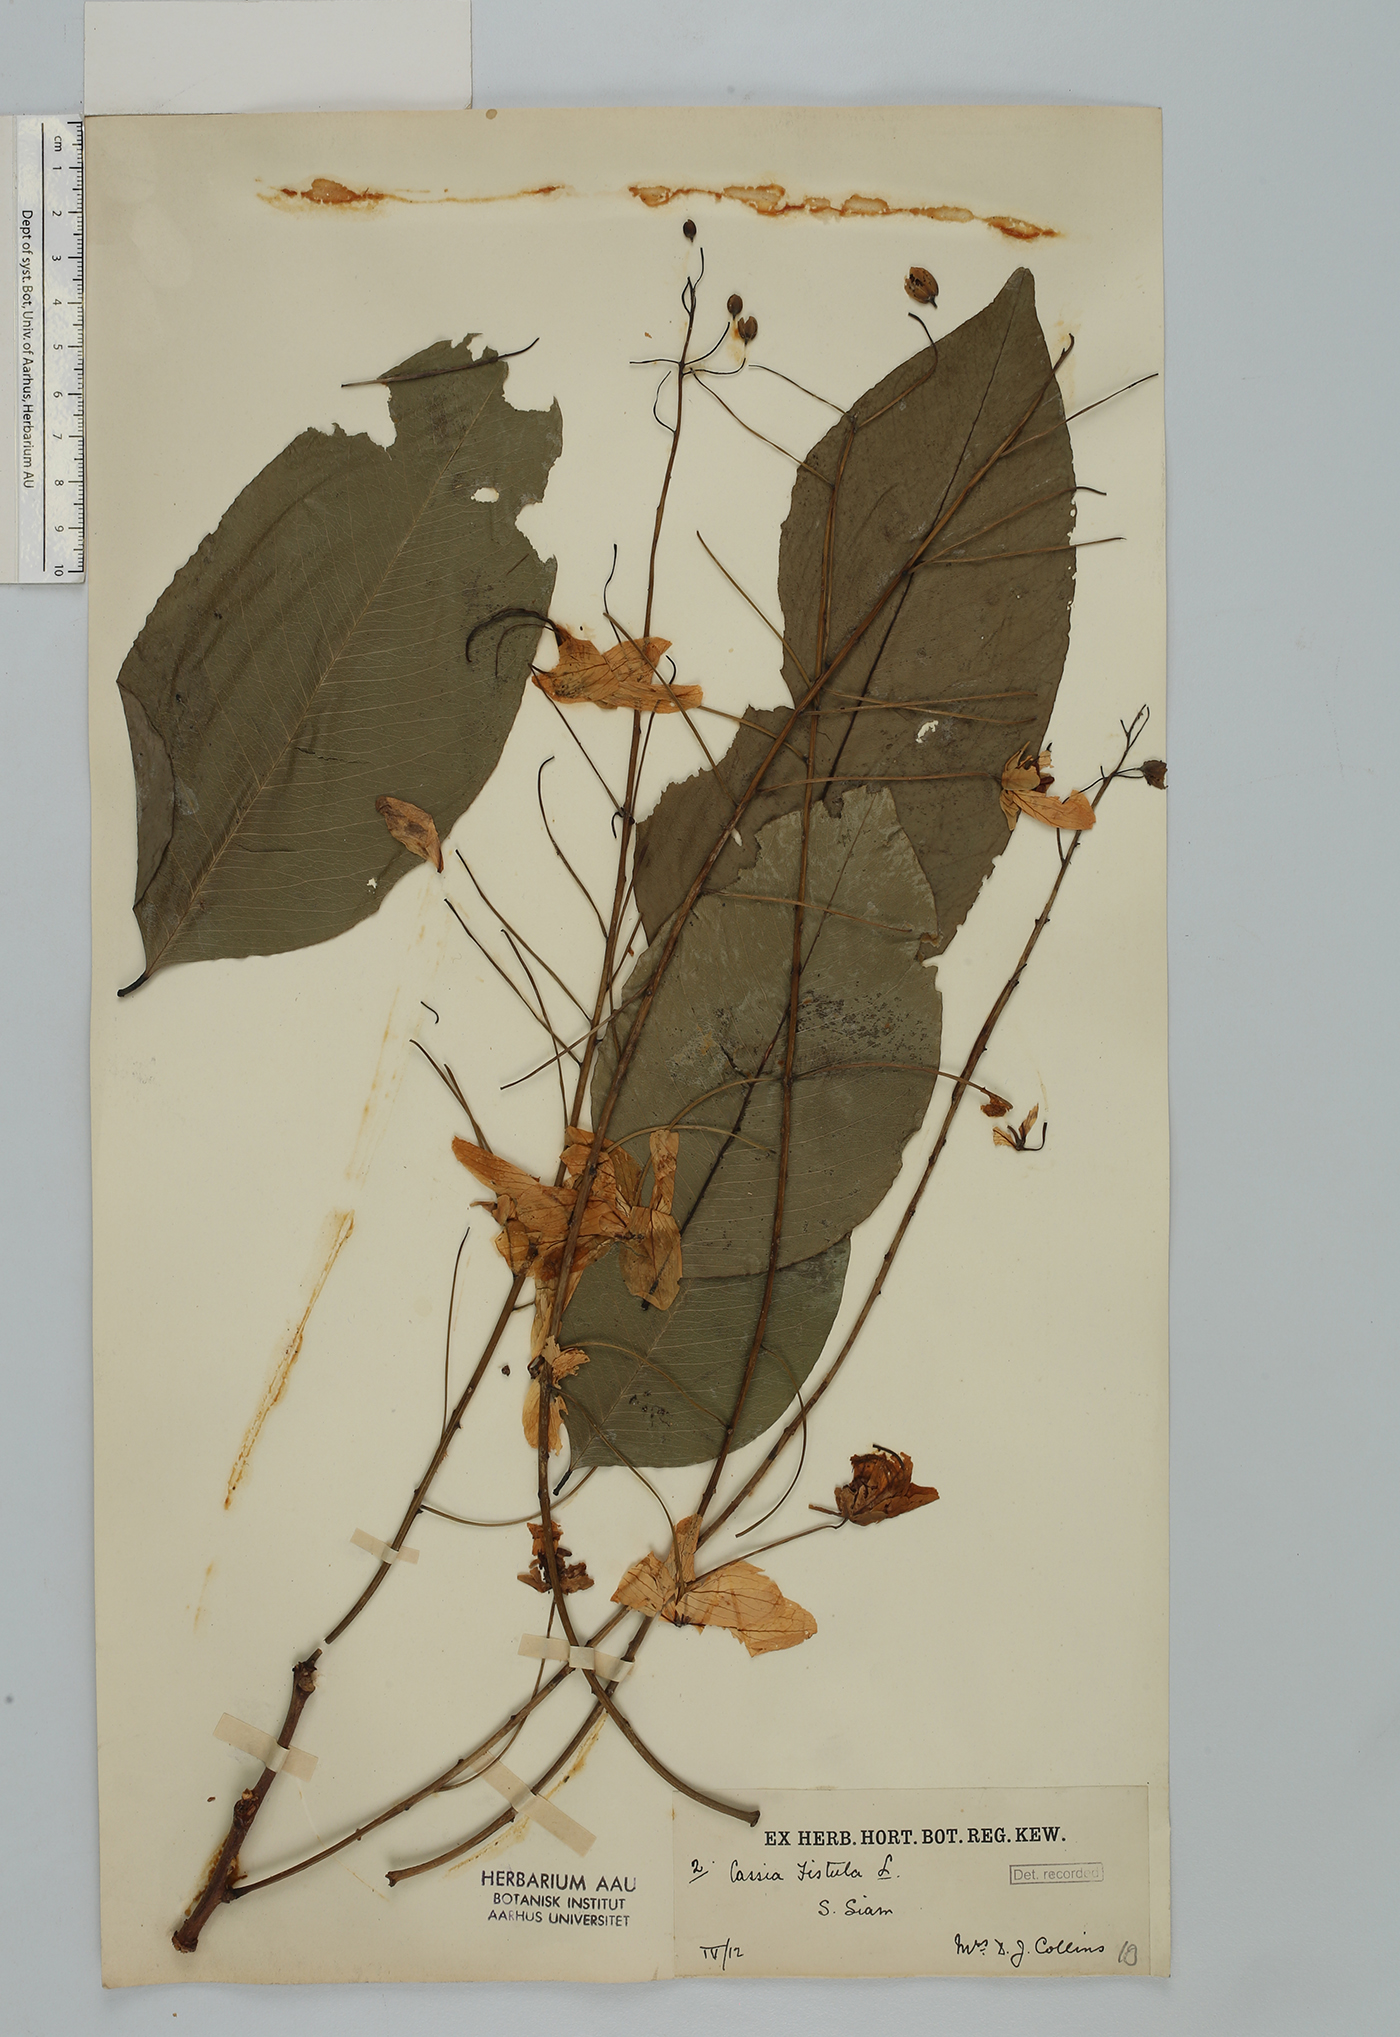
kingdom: Plantae
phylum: Tracheophyta
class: Magnoliopsida
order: Fabales
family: Fabaceae
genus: Cassia
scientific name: Cassia fistula
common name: Golden shower
